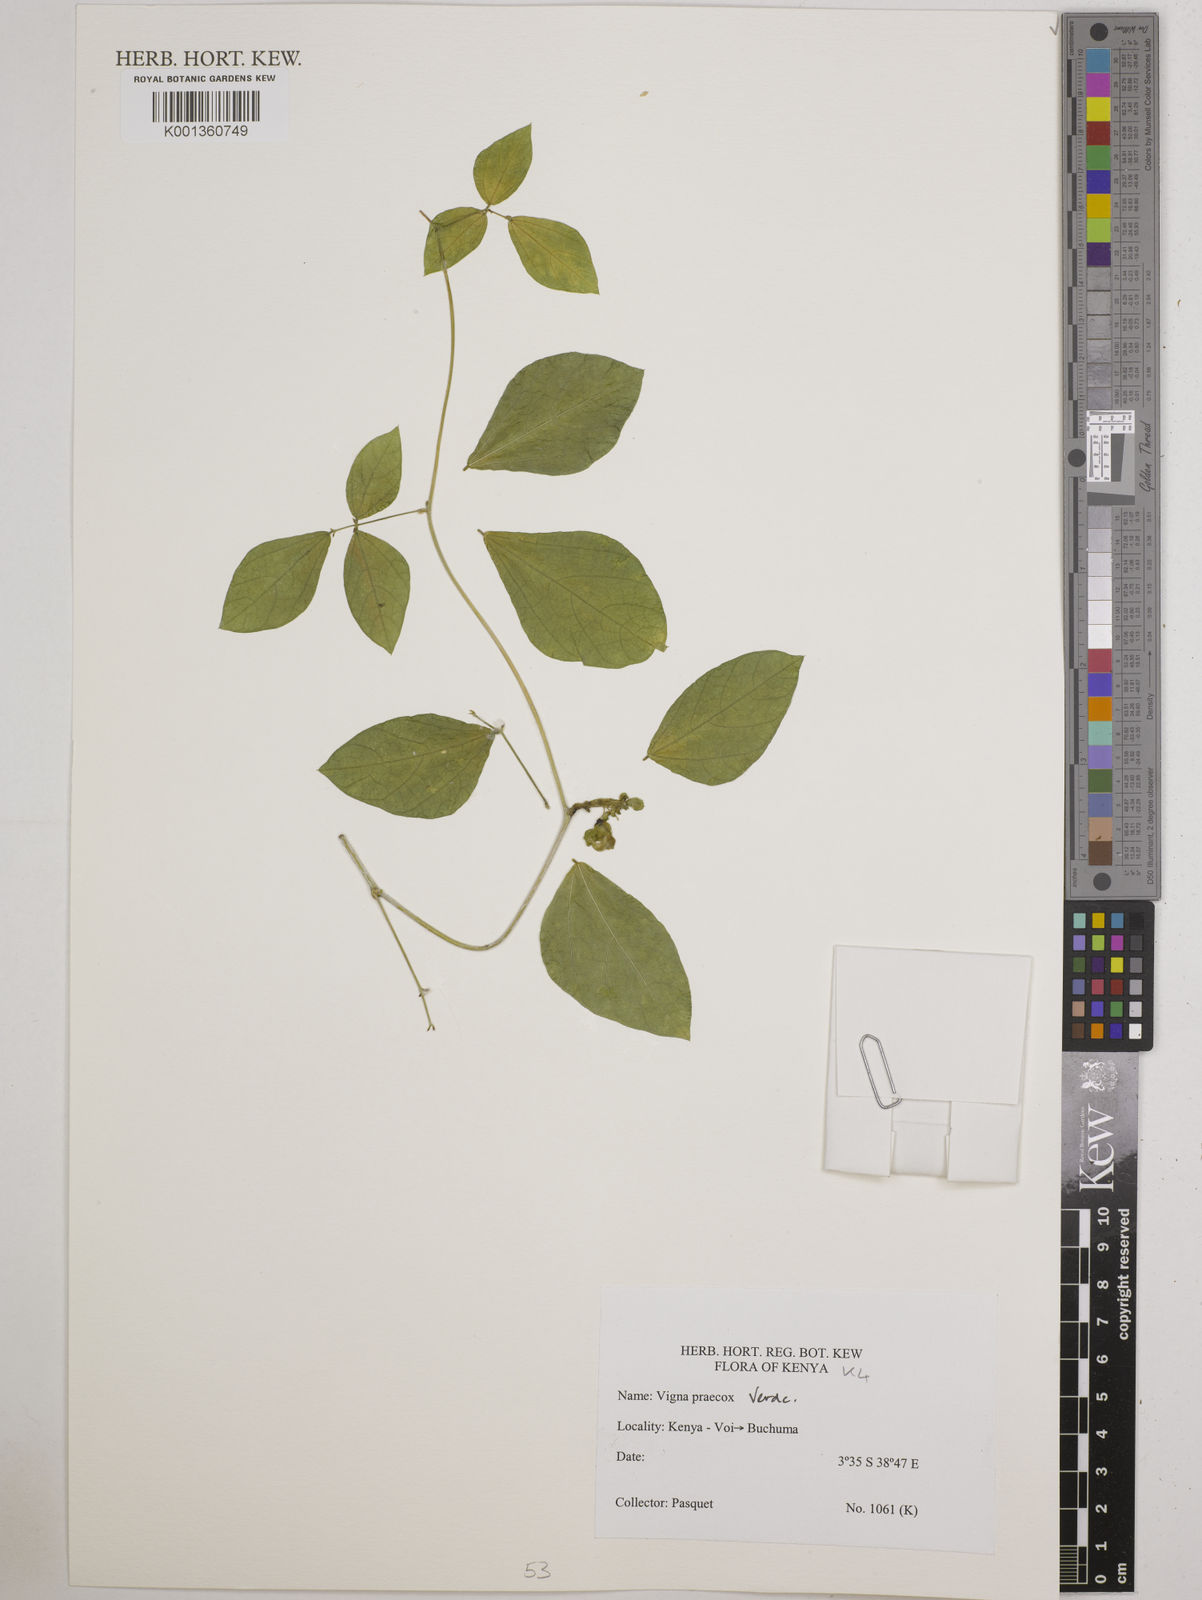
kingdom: Plantae
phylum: Tracheophyta
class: Magnoliopsida
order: Fabales
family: Fabaceae
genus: Wajira
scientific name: Wajira praecox
